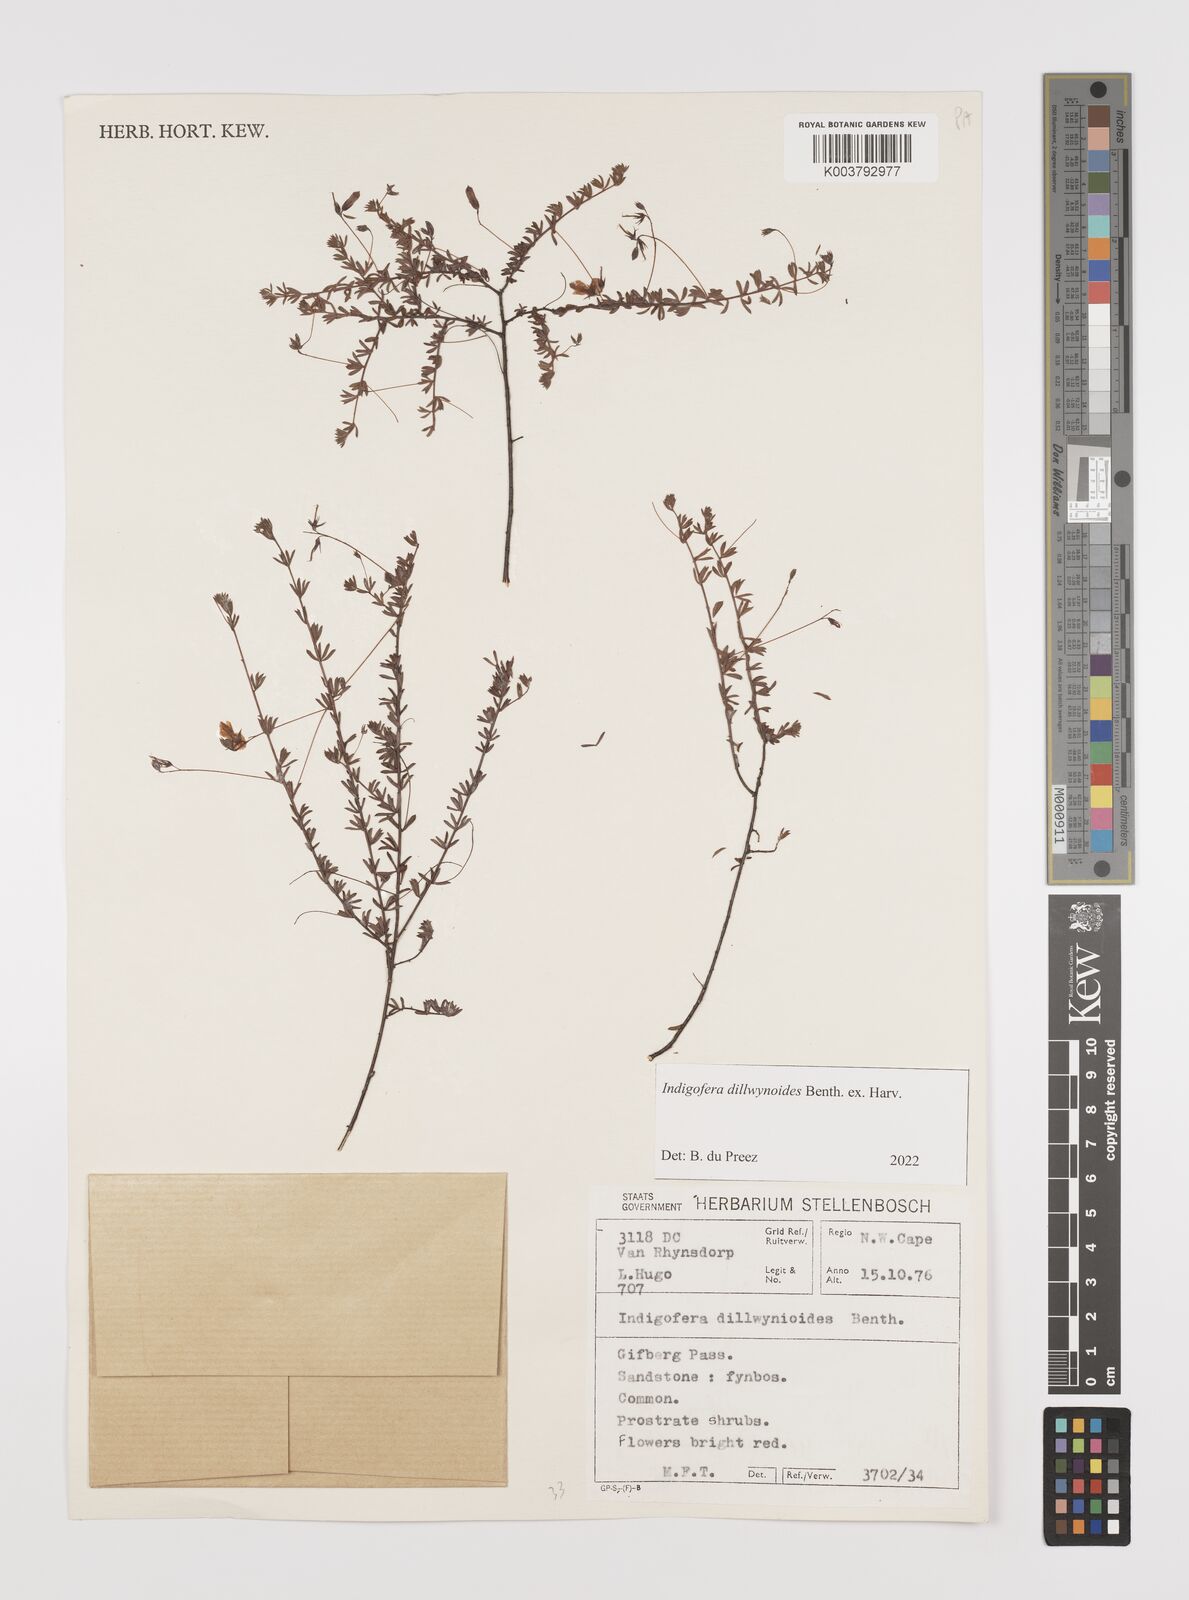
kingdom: Plantae
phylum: Tracheophyta
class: Magnoliopsida
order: Fabales
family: Fabaceae
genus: Indigofera
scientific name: Indigofera dillwynioides
